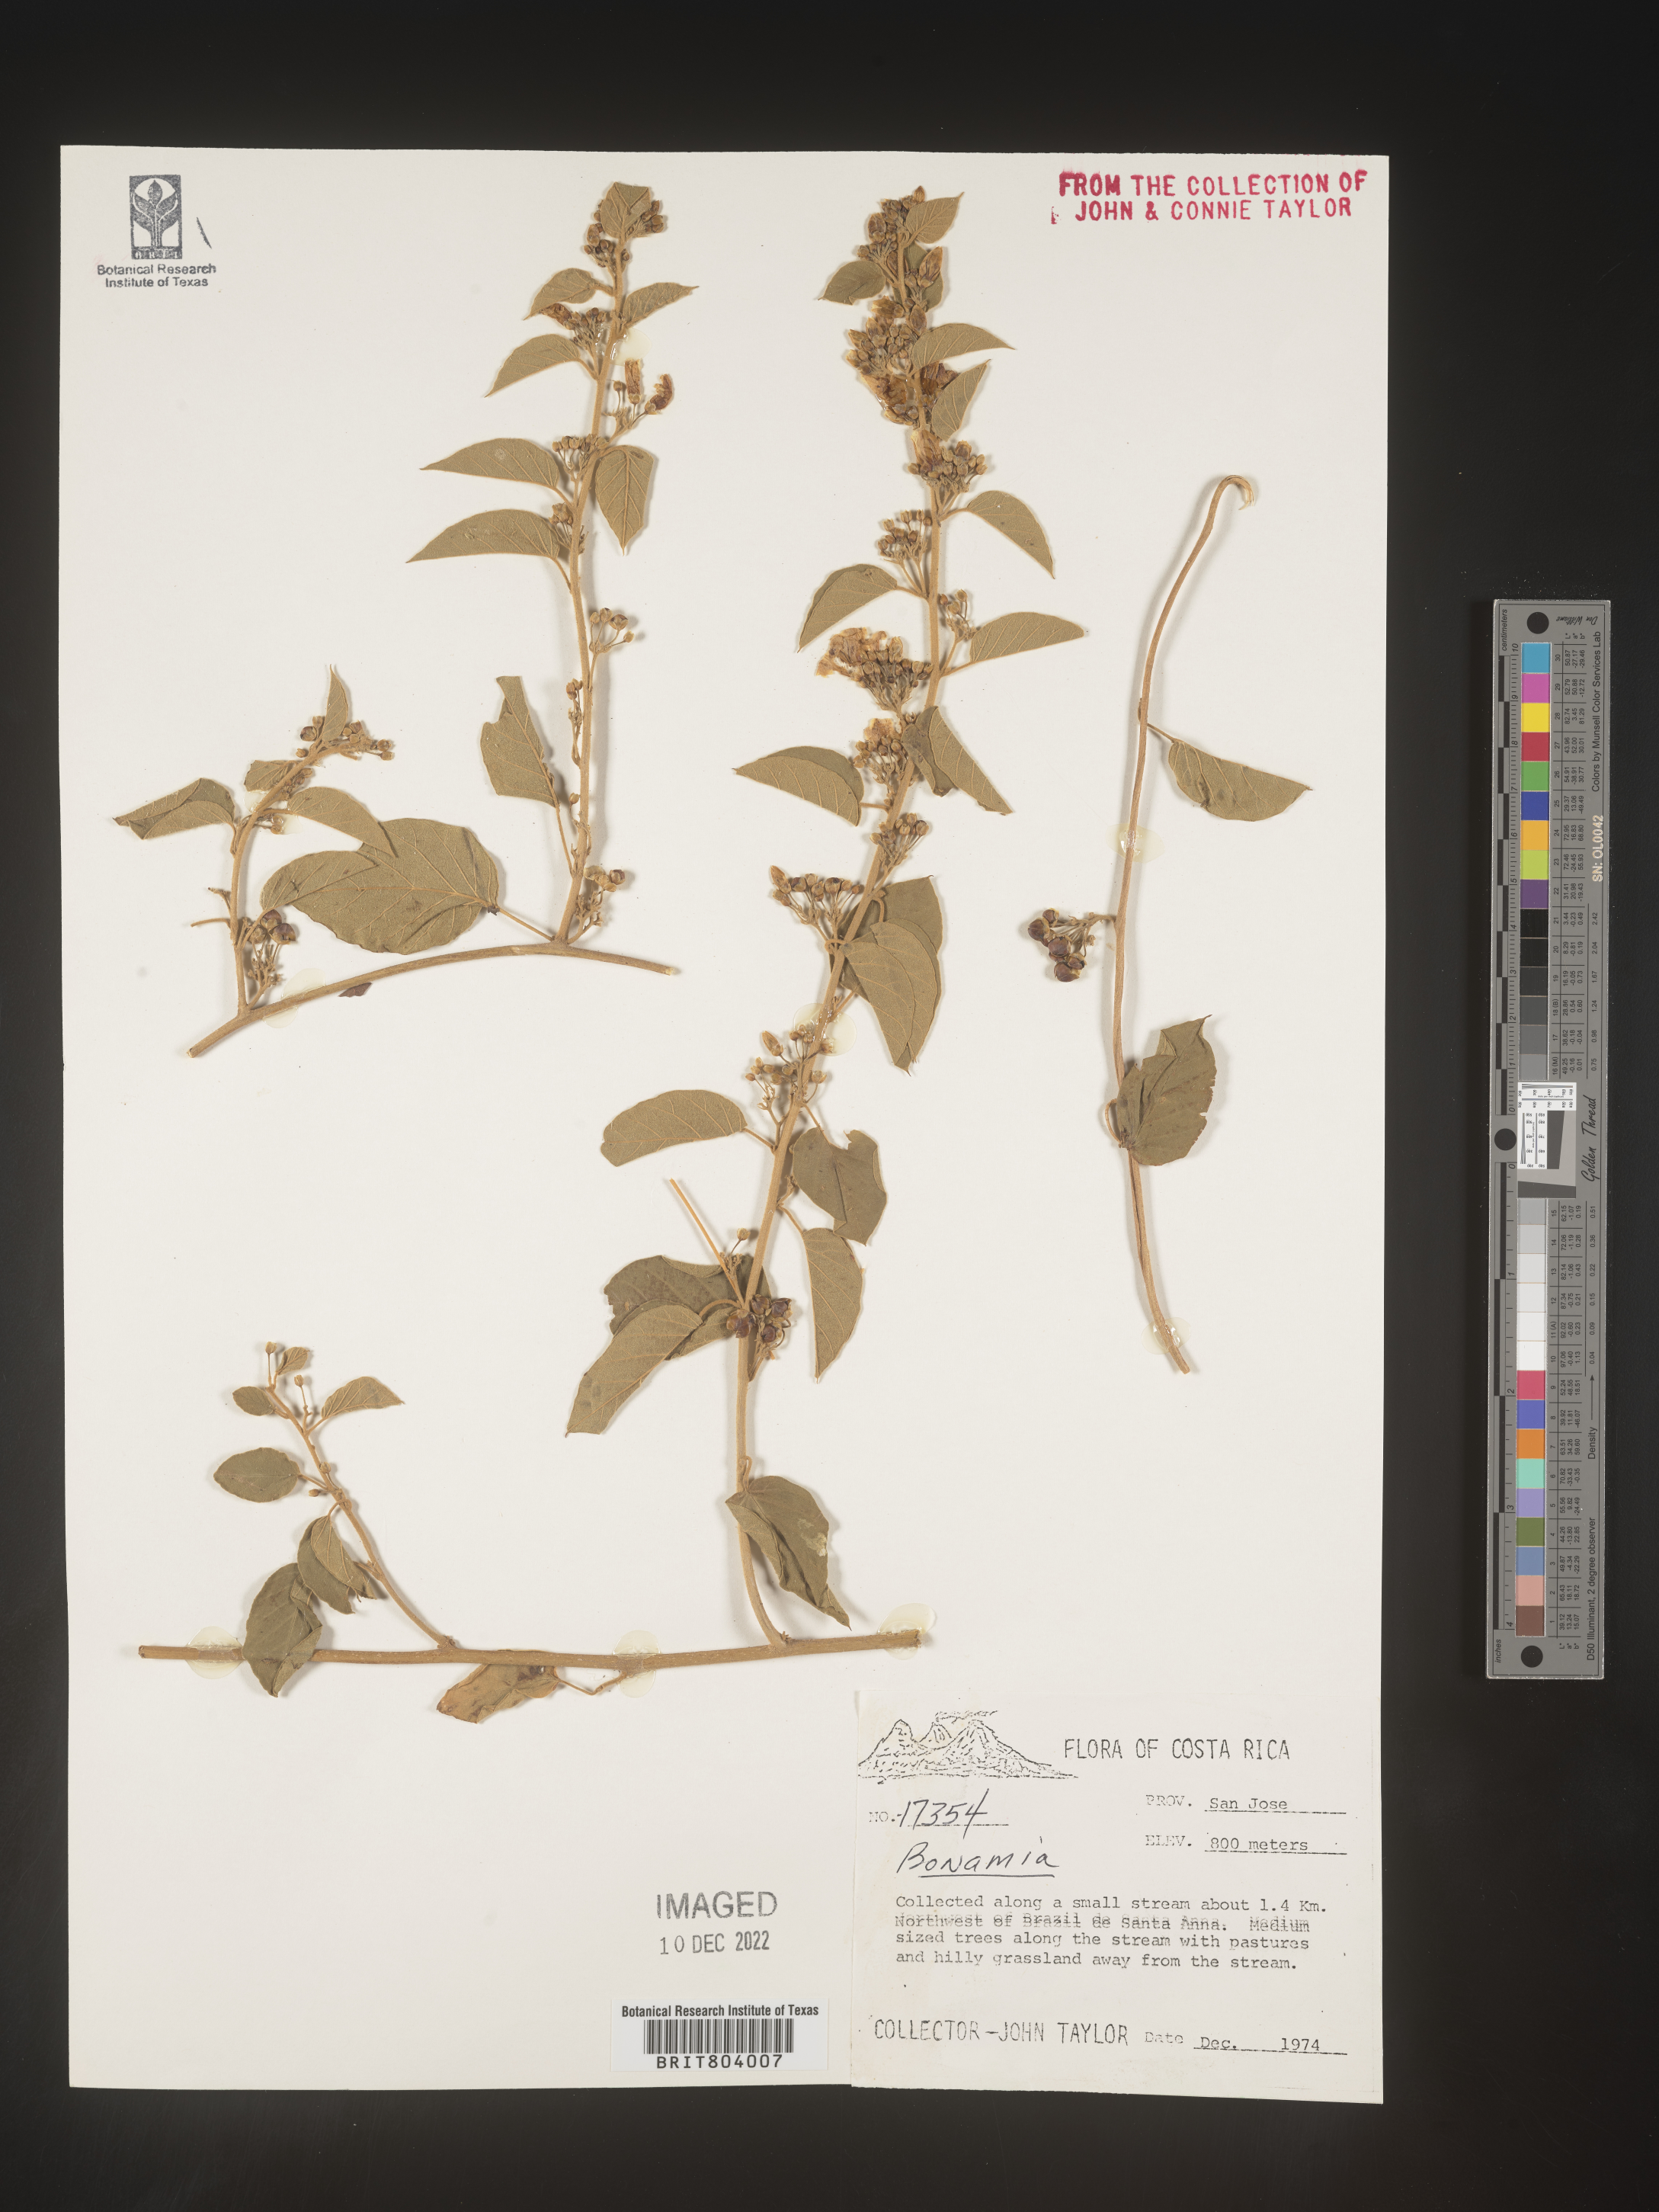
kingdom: Plantae
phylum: Tracheophyta
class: Magnoliopsida
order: Solanales
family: Convolvulaceae
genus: Bonamia
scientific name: Bonamia
